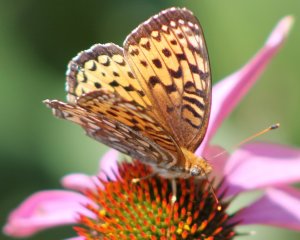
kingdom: Animalia
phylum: Arthropoda
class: Insecta
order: Lepidoptera
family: Nymphalidae
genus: Speyeria
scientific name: Speyeria atlantis
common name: Atlantis Fritillary
